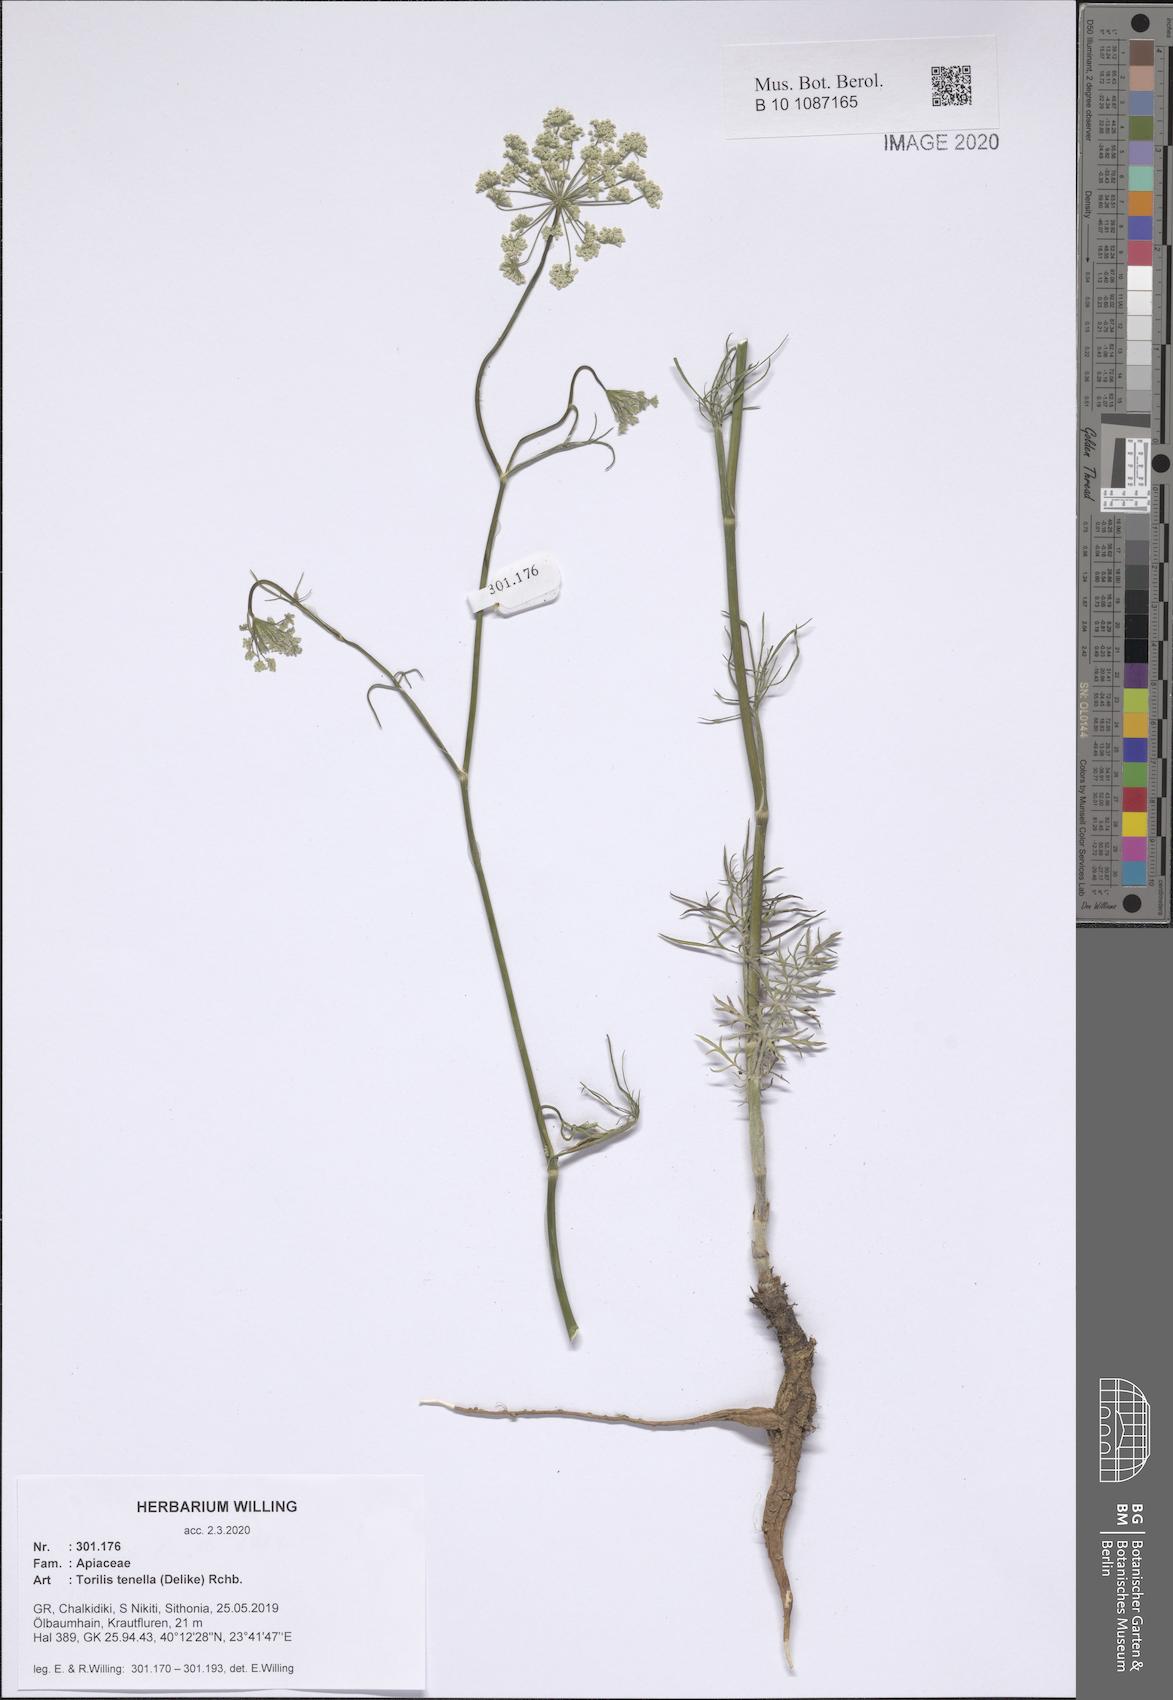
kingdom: Plantae
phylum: Tracheophyta
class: Magnoliopsida
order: Apiales
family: Apiaceae
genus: Torilis
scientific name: Torilis tenella
